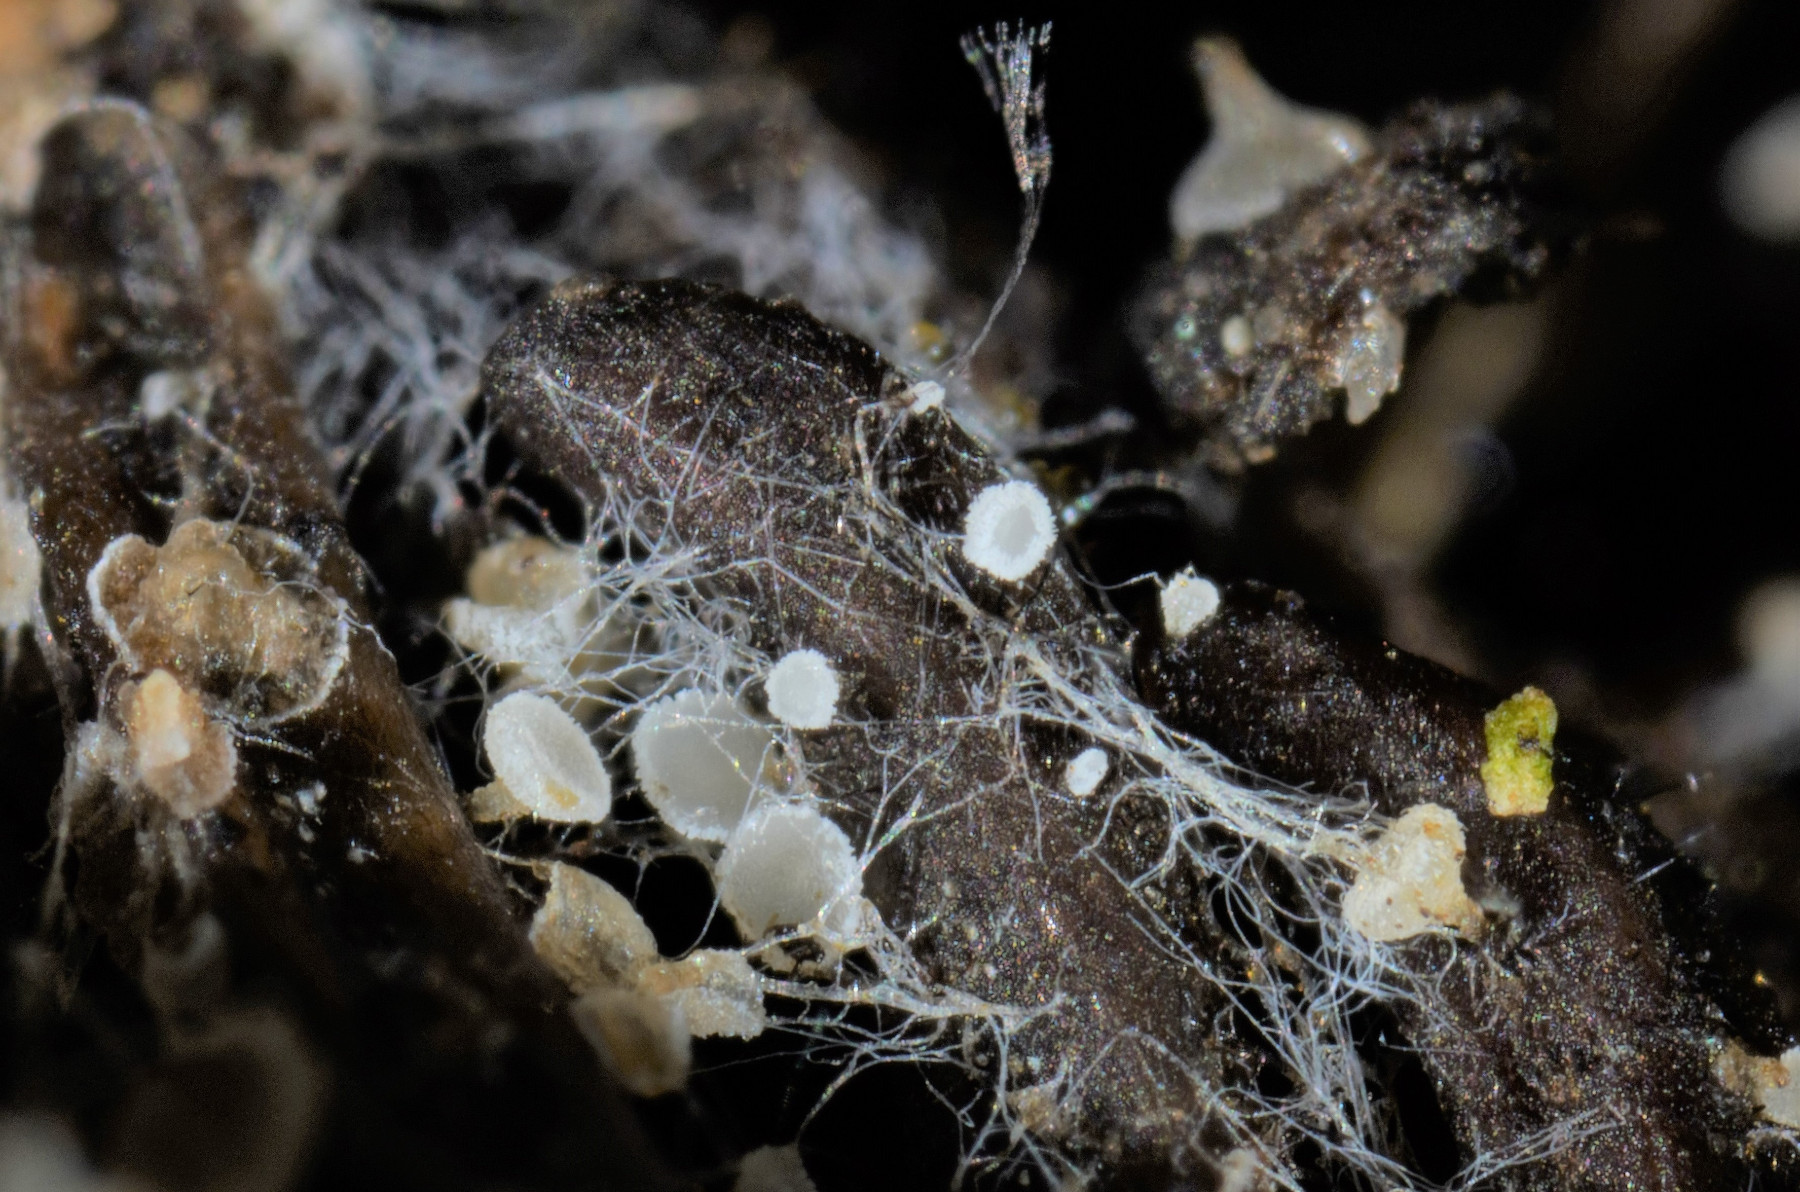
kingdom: Fungi
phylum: Ascomycota
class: Leotiomycetes
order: Helotiales
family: Hyaloscyphaceae
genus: Cistella
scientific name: Cistella acuum
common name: nåle-sirskive
